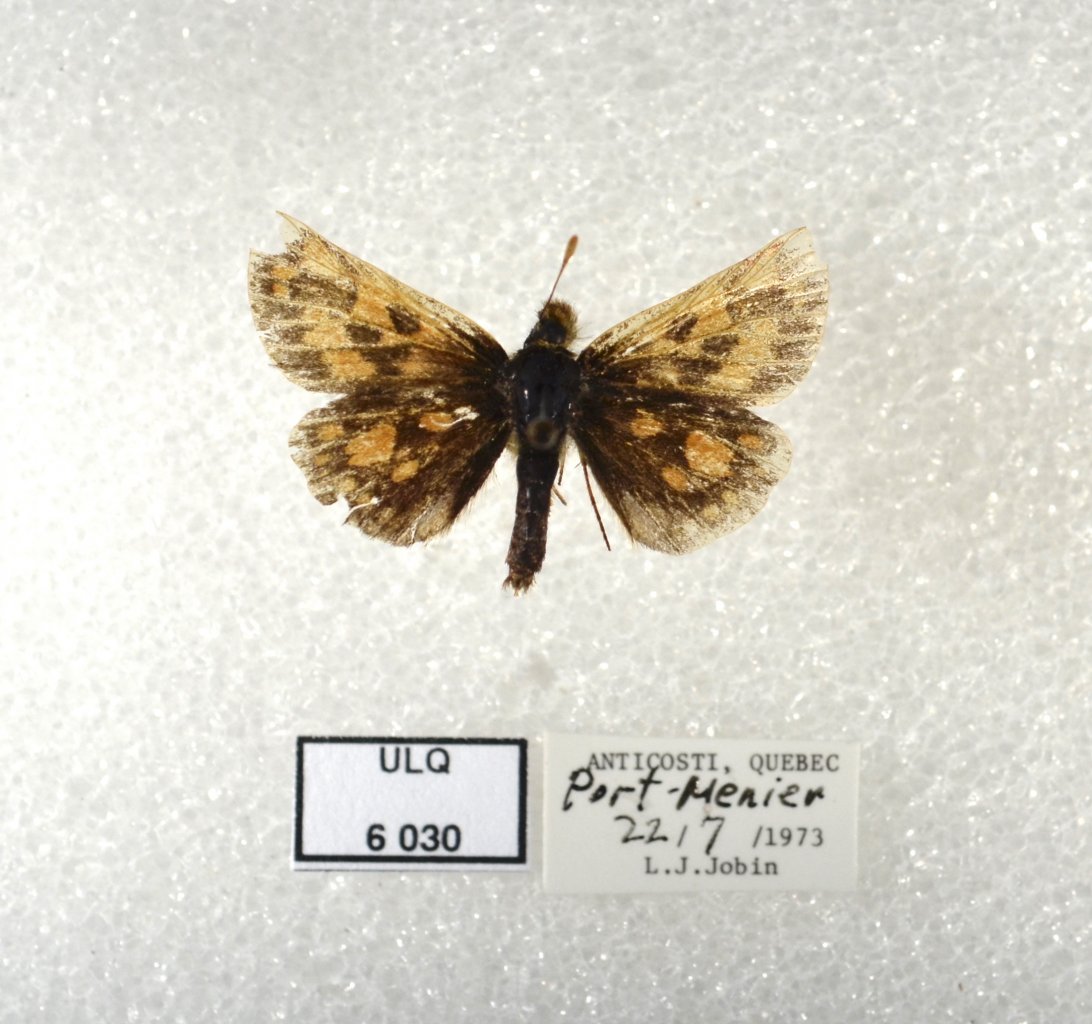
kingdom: Animalia
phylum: Arthropoda
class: Insecta
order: Lepidoptera
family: Hesperiidae
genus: Carterocephalus
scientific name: Carterocephalus palaemon
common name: Chequered Skipper
